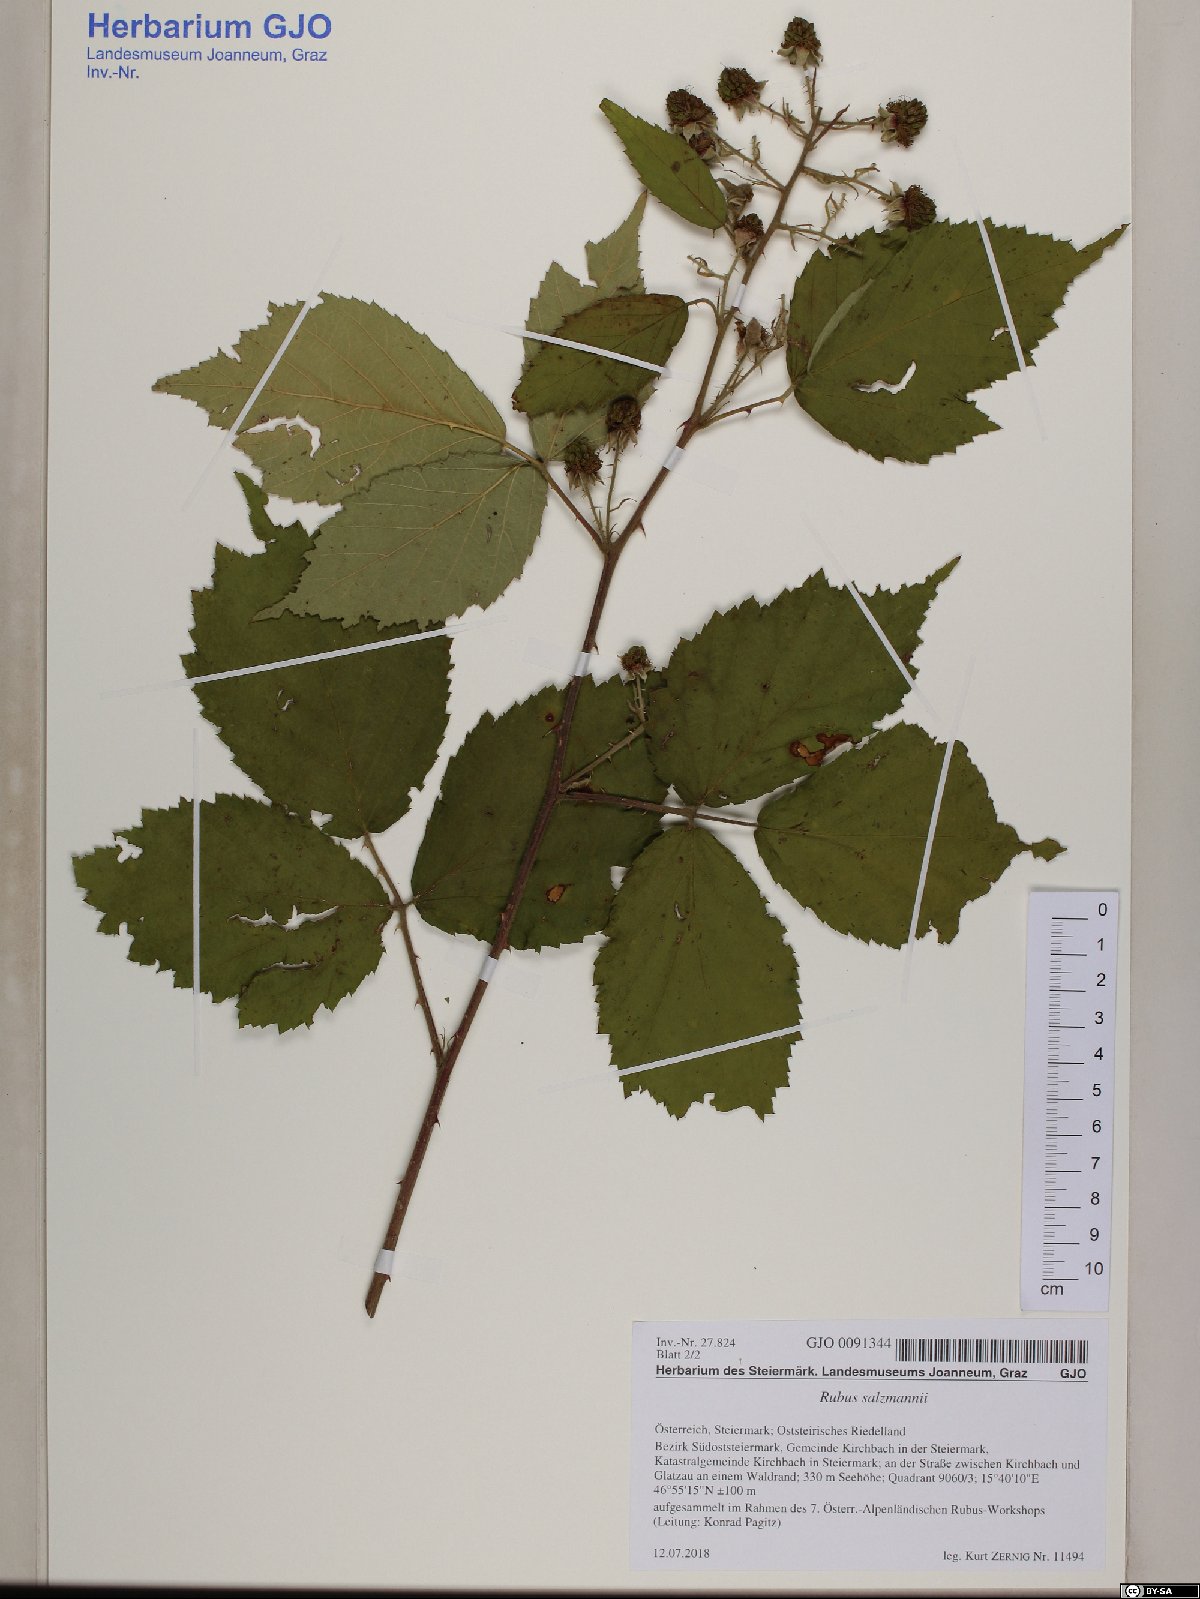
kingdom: Plantae
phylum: Tracheophyta
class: Magnoliopsida
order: Rosales
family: Rosaceae
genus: Rubus
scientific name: Rubus salzmannii
